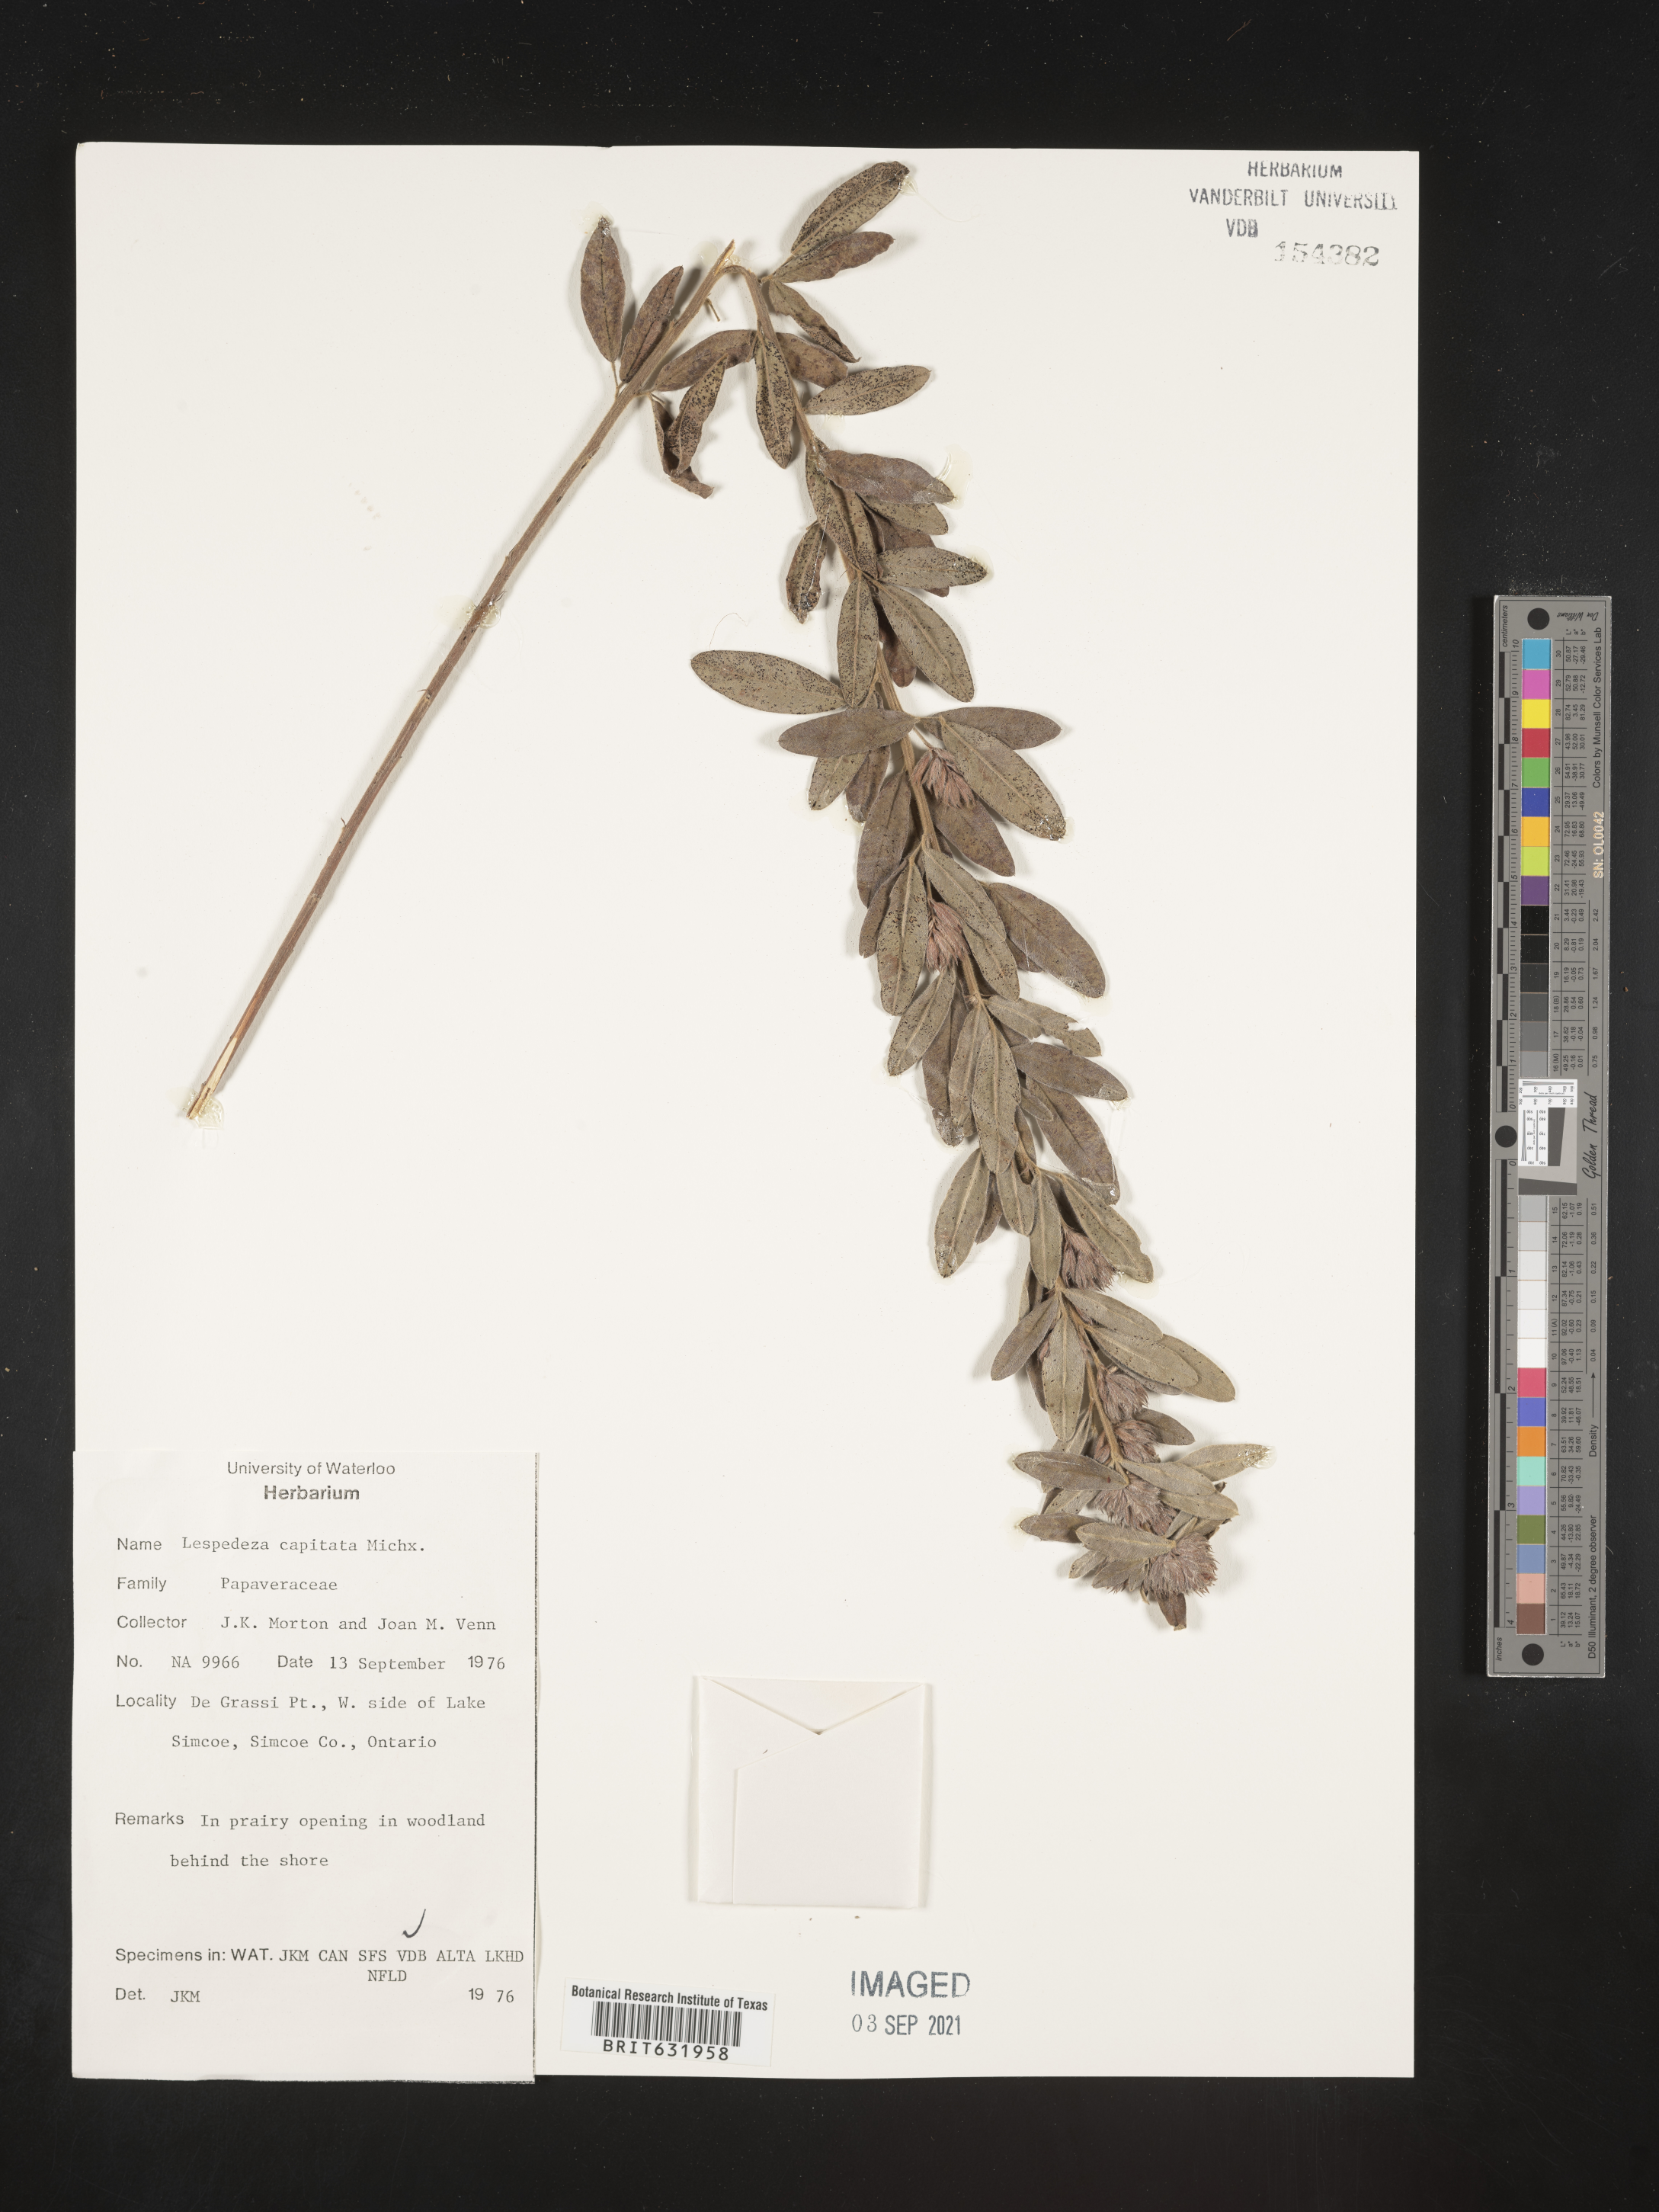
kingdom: Plantae
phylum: Tracheophyta
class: Magnoliopsida
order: Fabales
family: Fabaceae
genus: Lespedeza
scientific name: Lespedeza
